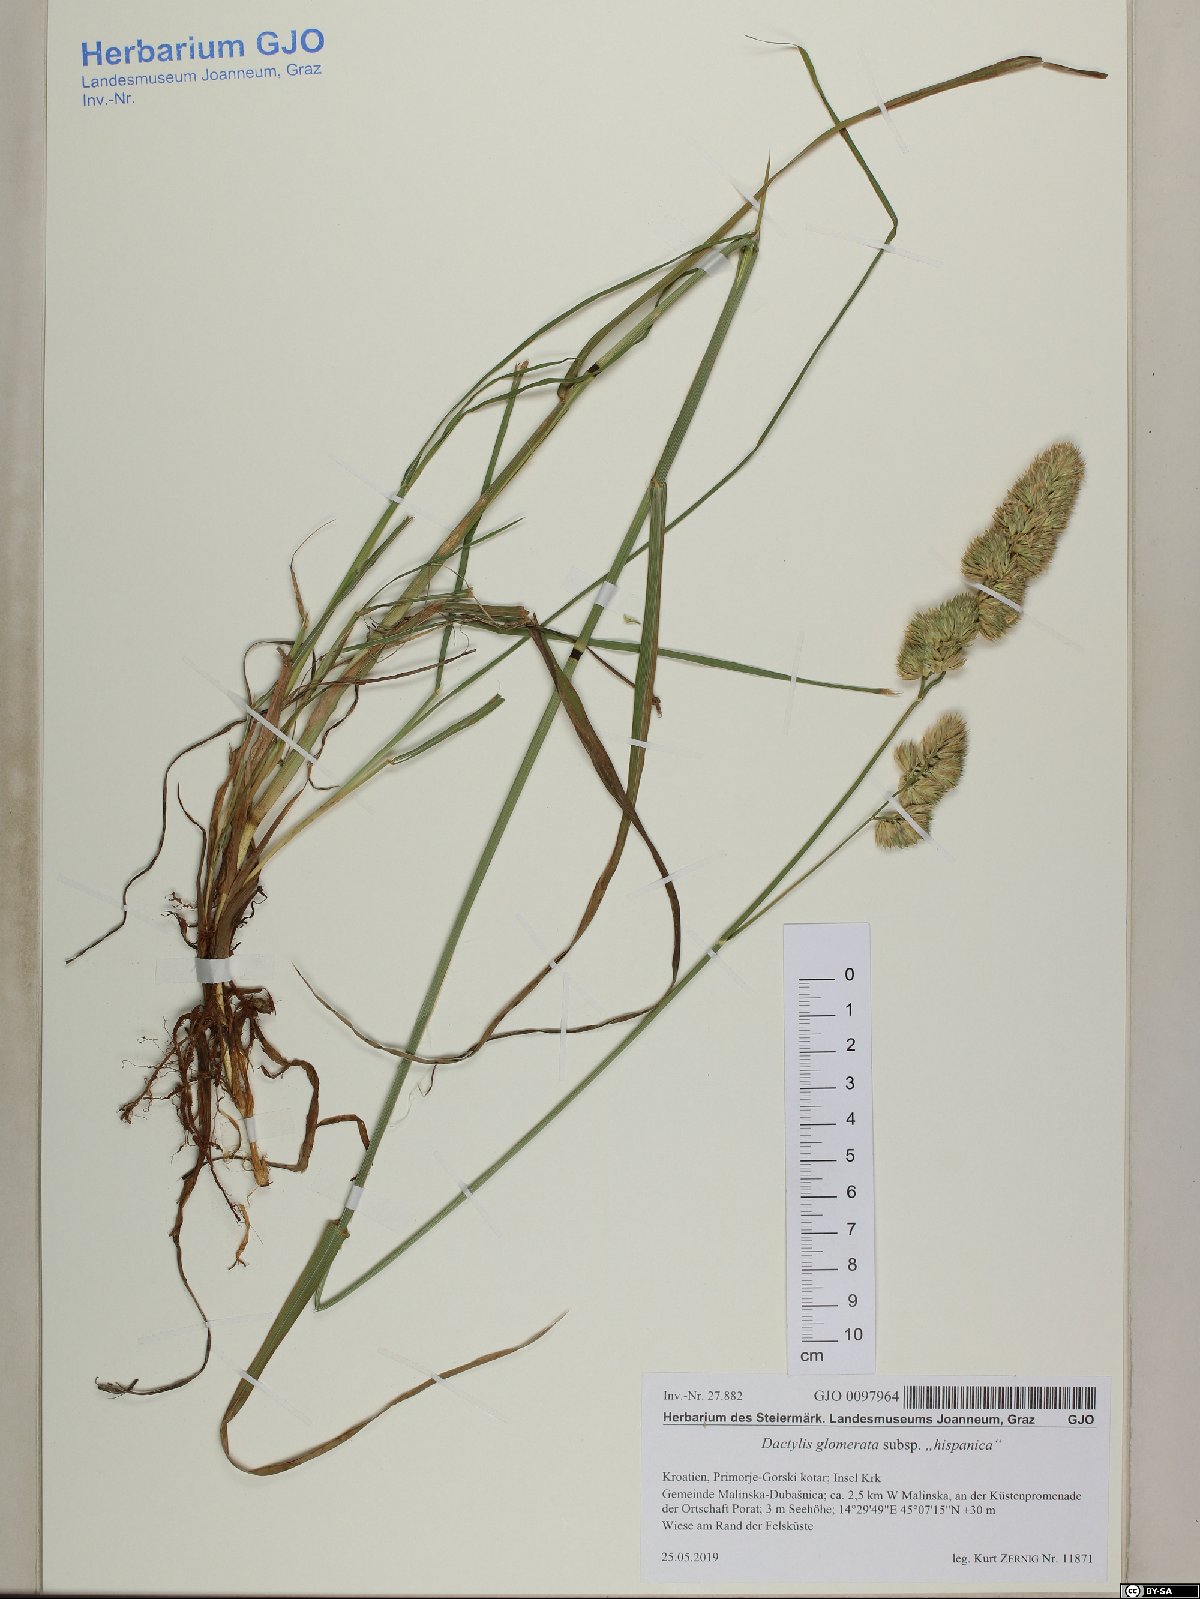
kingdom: Plantae
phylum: Tracheophyta
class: Liliopsida
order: Poales
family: Poaceae
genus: Dactylis
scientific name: Dactylis glomerata
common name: Orchardgrass
